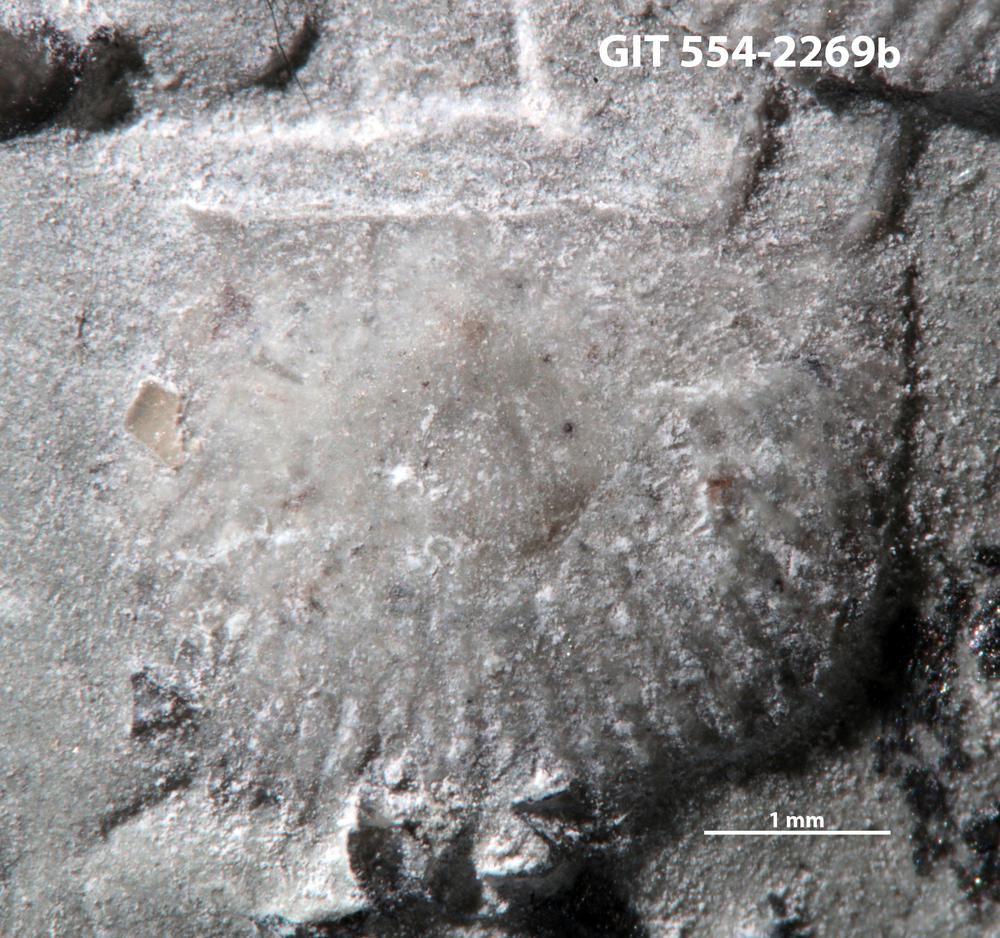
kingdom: Animalia
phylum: Brachiopoda
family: Strophochonetidae
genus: Protochonetes
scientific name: Protochonetes Orthis striatella
